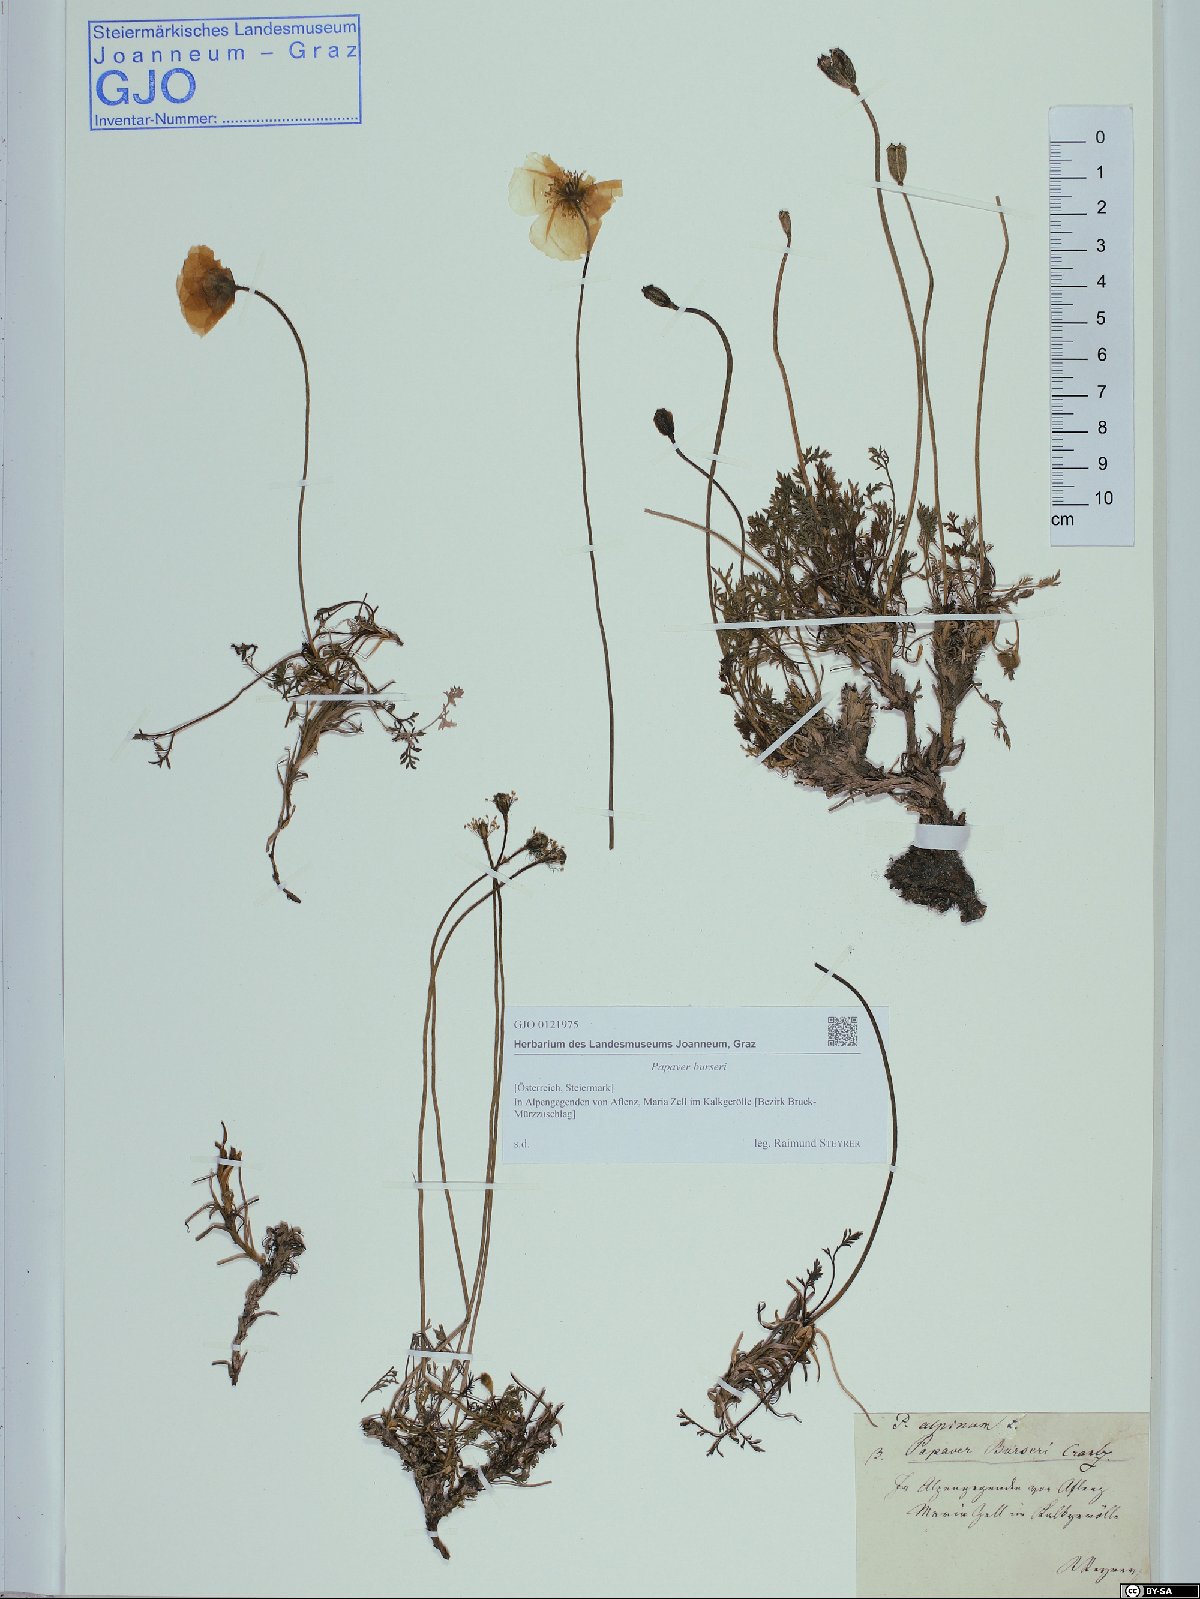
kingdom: Plantae
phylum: Tracheophyta
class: Magnoliopsida
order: Ranunculales
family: Papaveraceae
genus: Papaver
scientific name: Papaver alpinum
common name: Austrian poppy
